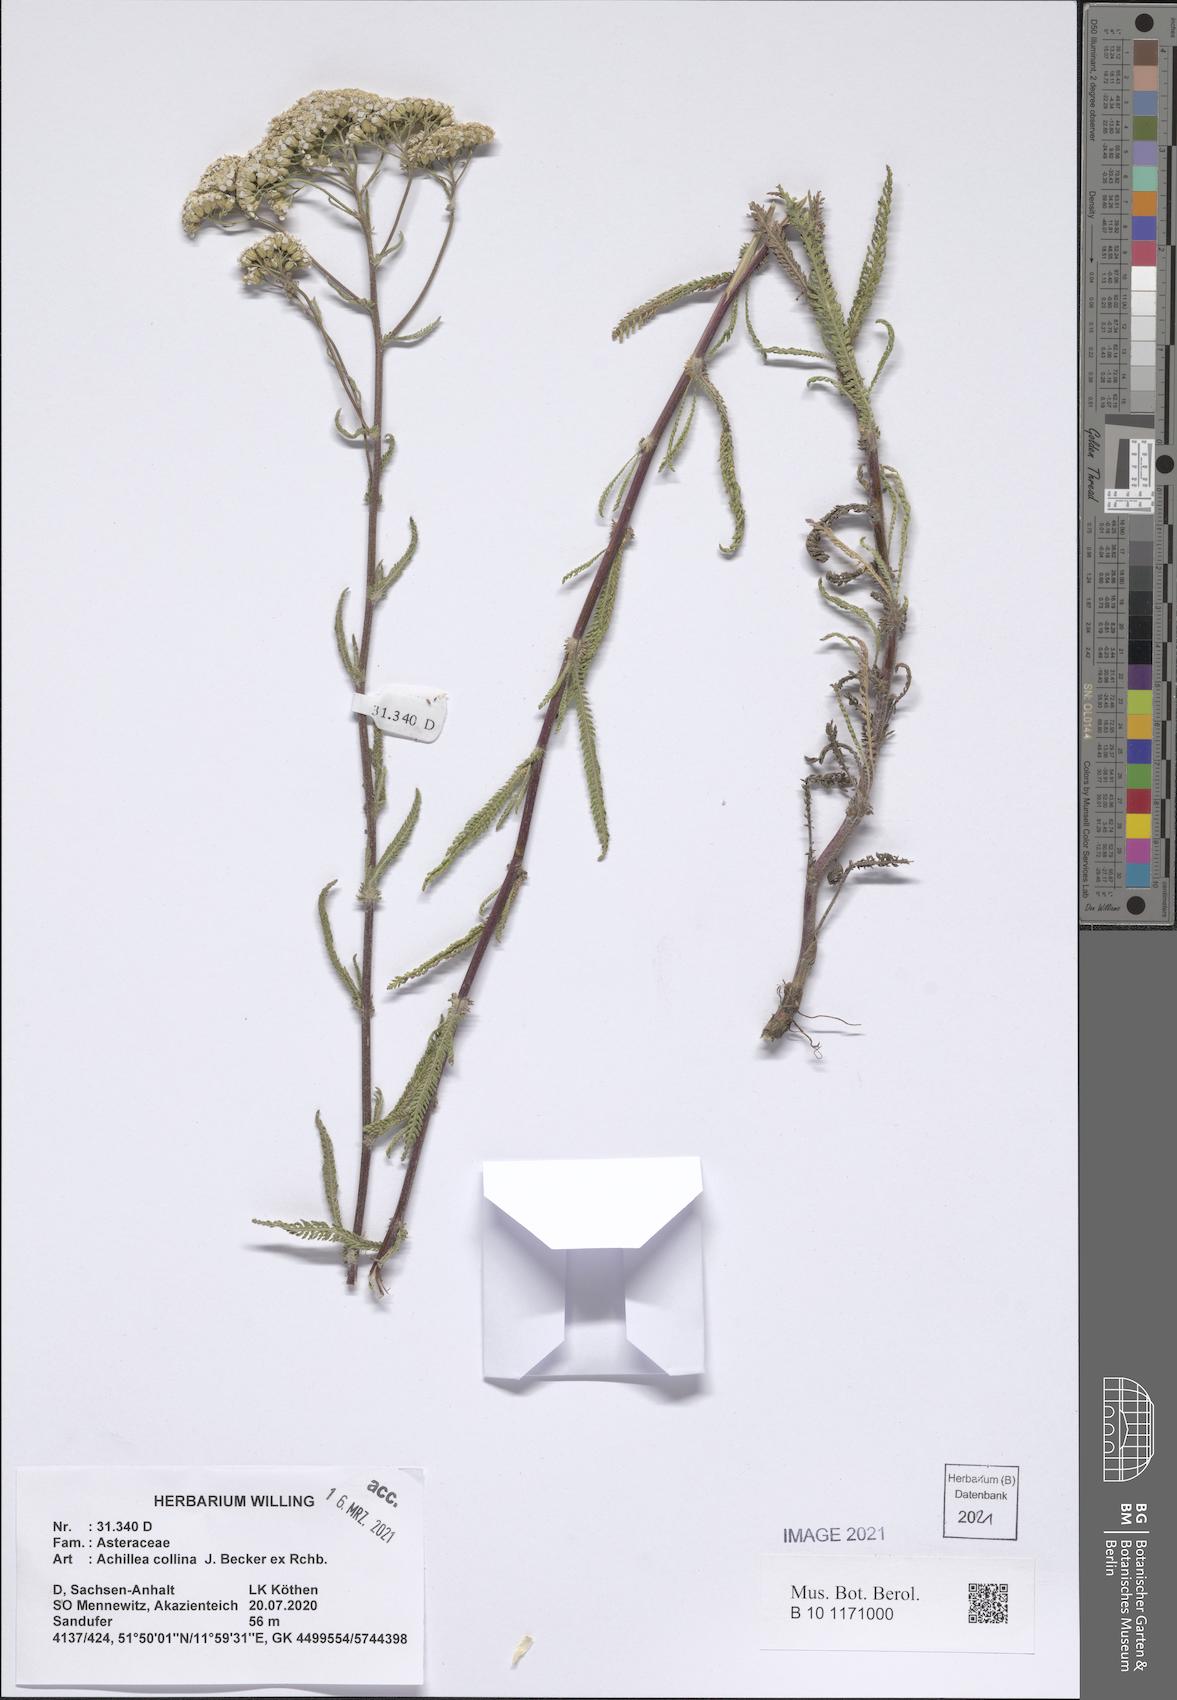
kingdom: Plantae
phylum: Tracheophyta
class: Magnoliopsida
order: Asterales
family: Asteraceae
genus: Achillea
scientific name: Achillea collina
